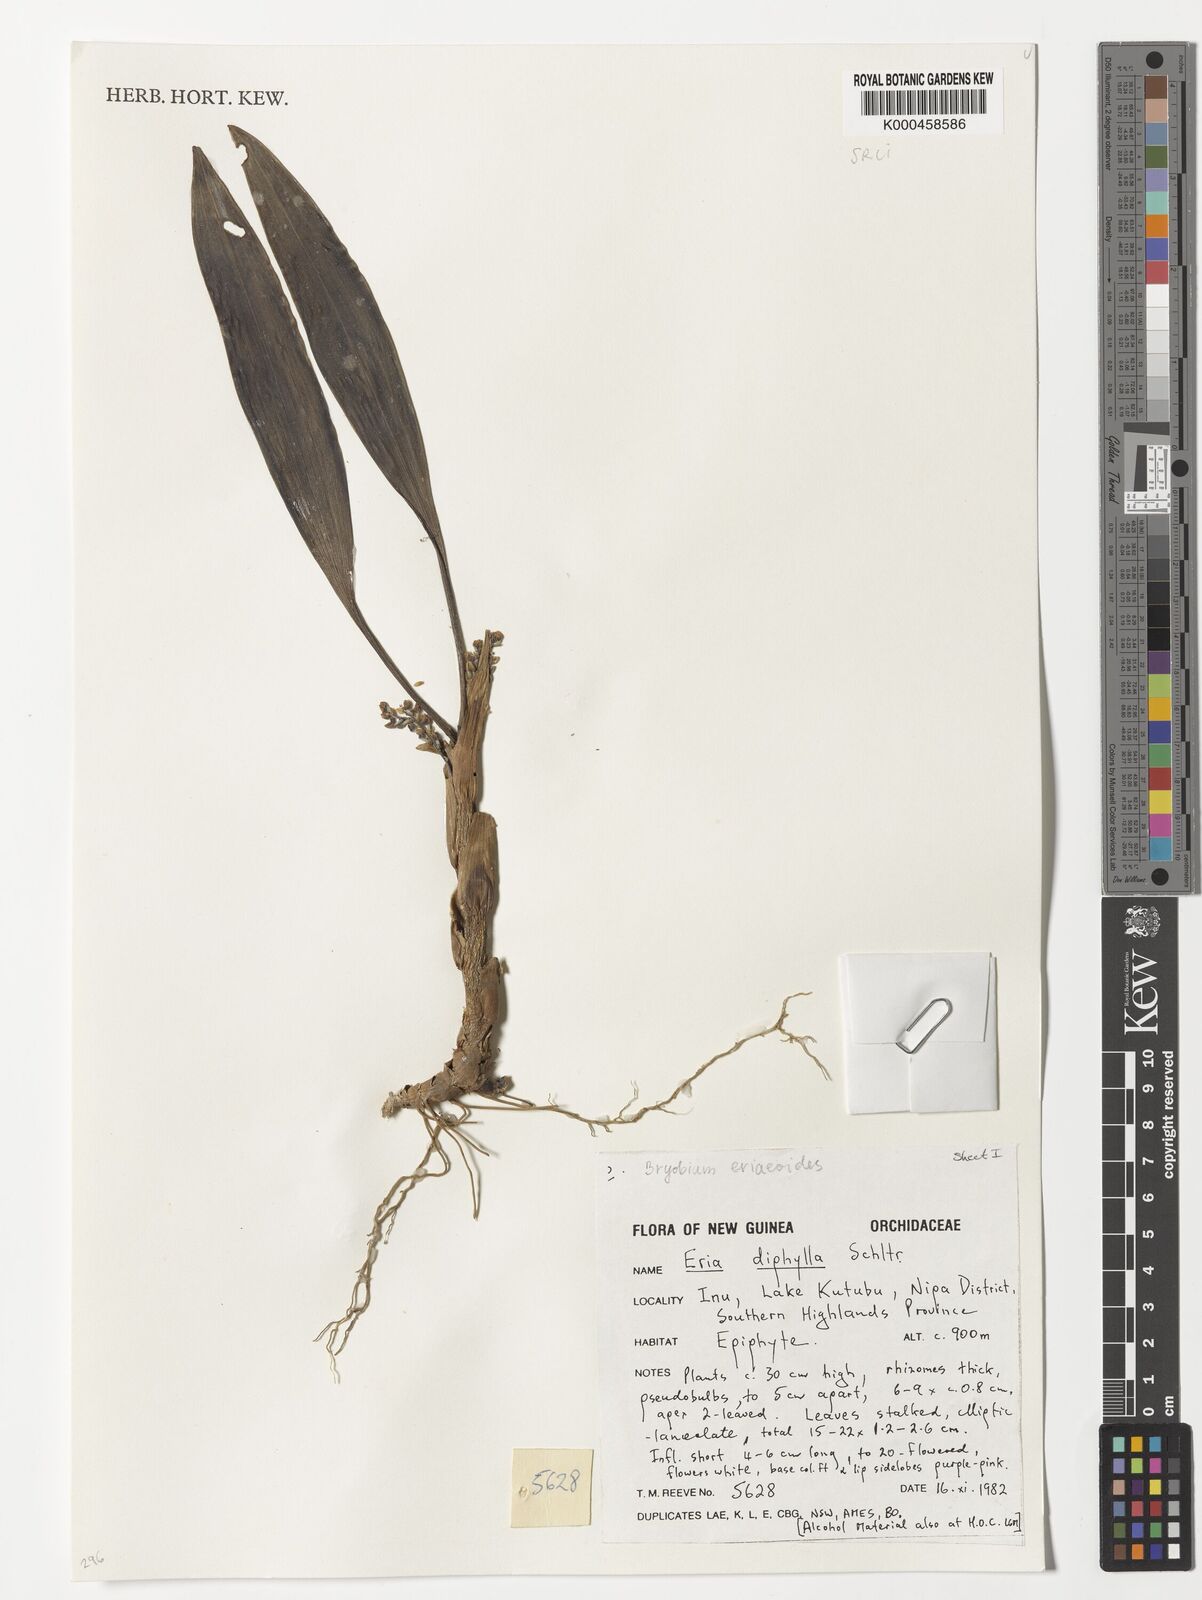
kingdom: Plantae
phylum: Tracheophyta
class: Liliopsida
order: Asparagales
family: Orchidaceae
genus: Bryobium
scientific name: Bryobium eriaeoides
